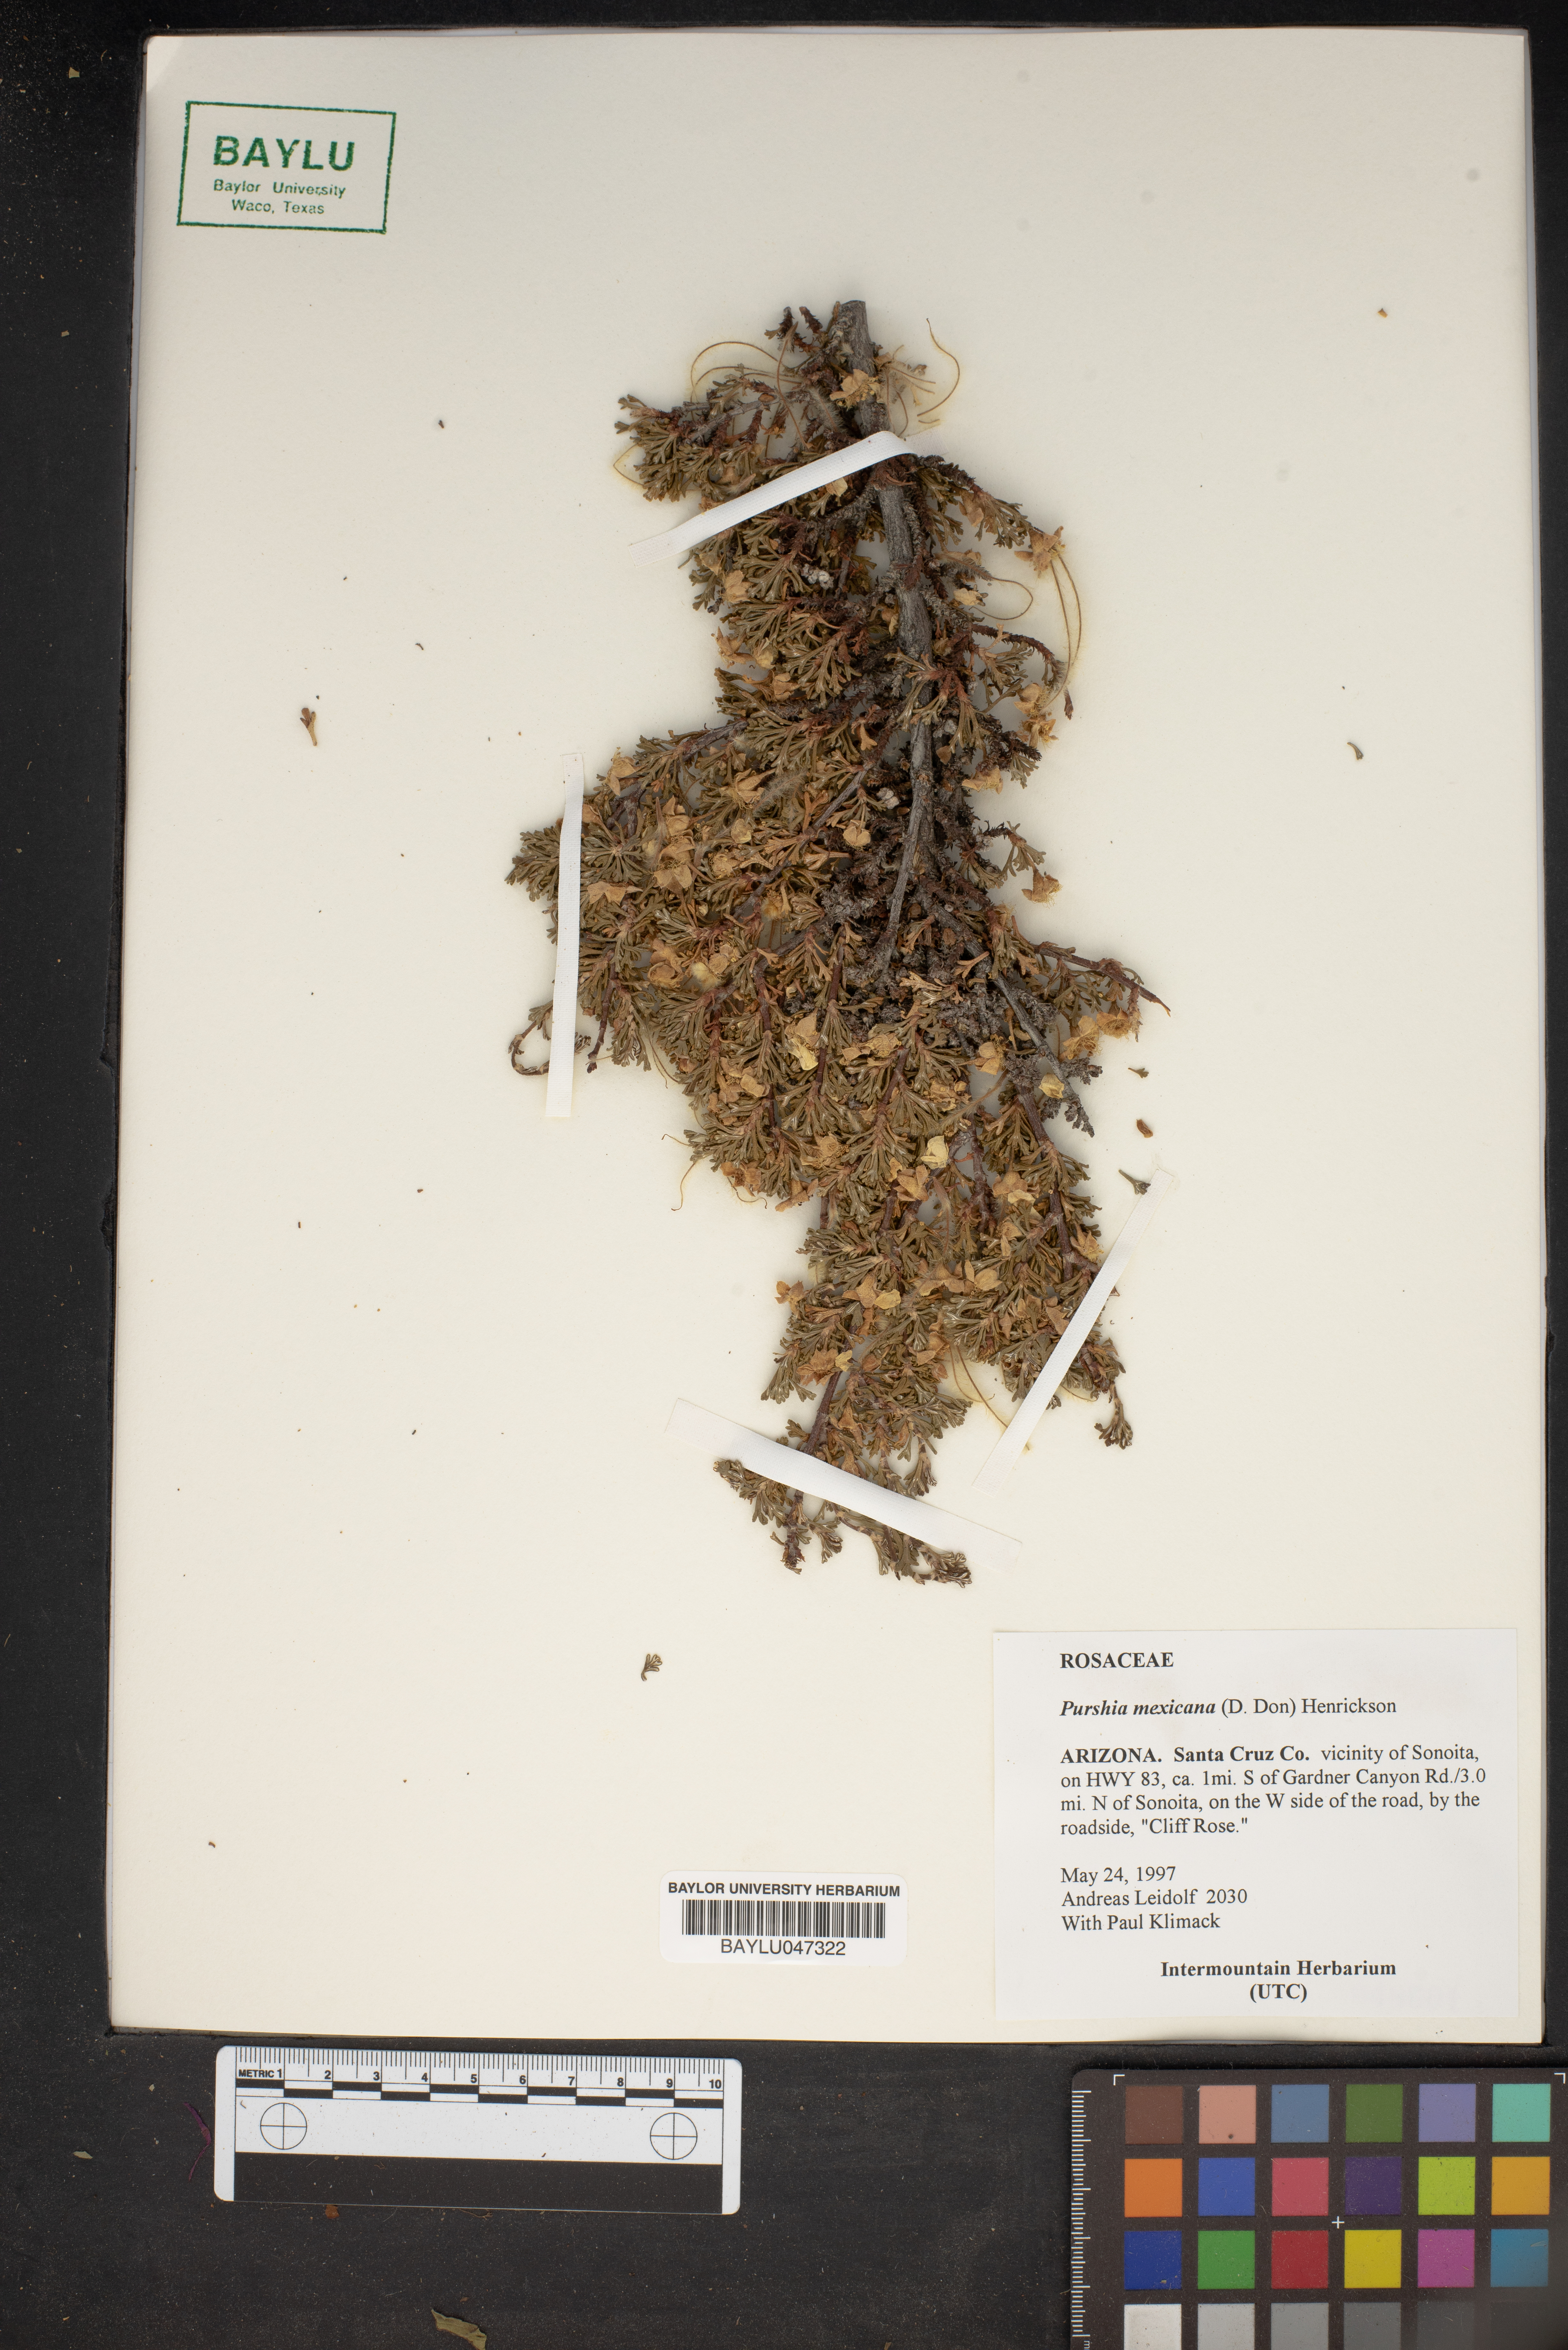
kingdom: Plantae
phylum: Tracheophyta
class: Magnoliopsida
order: Rosales
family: Rosaceae
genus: Purshia
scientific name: Purshia mexicana
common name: Mexican cliffrose
